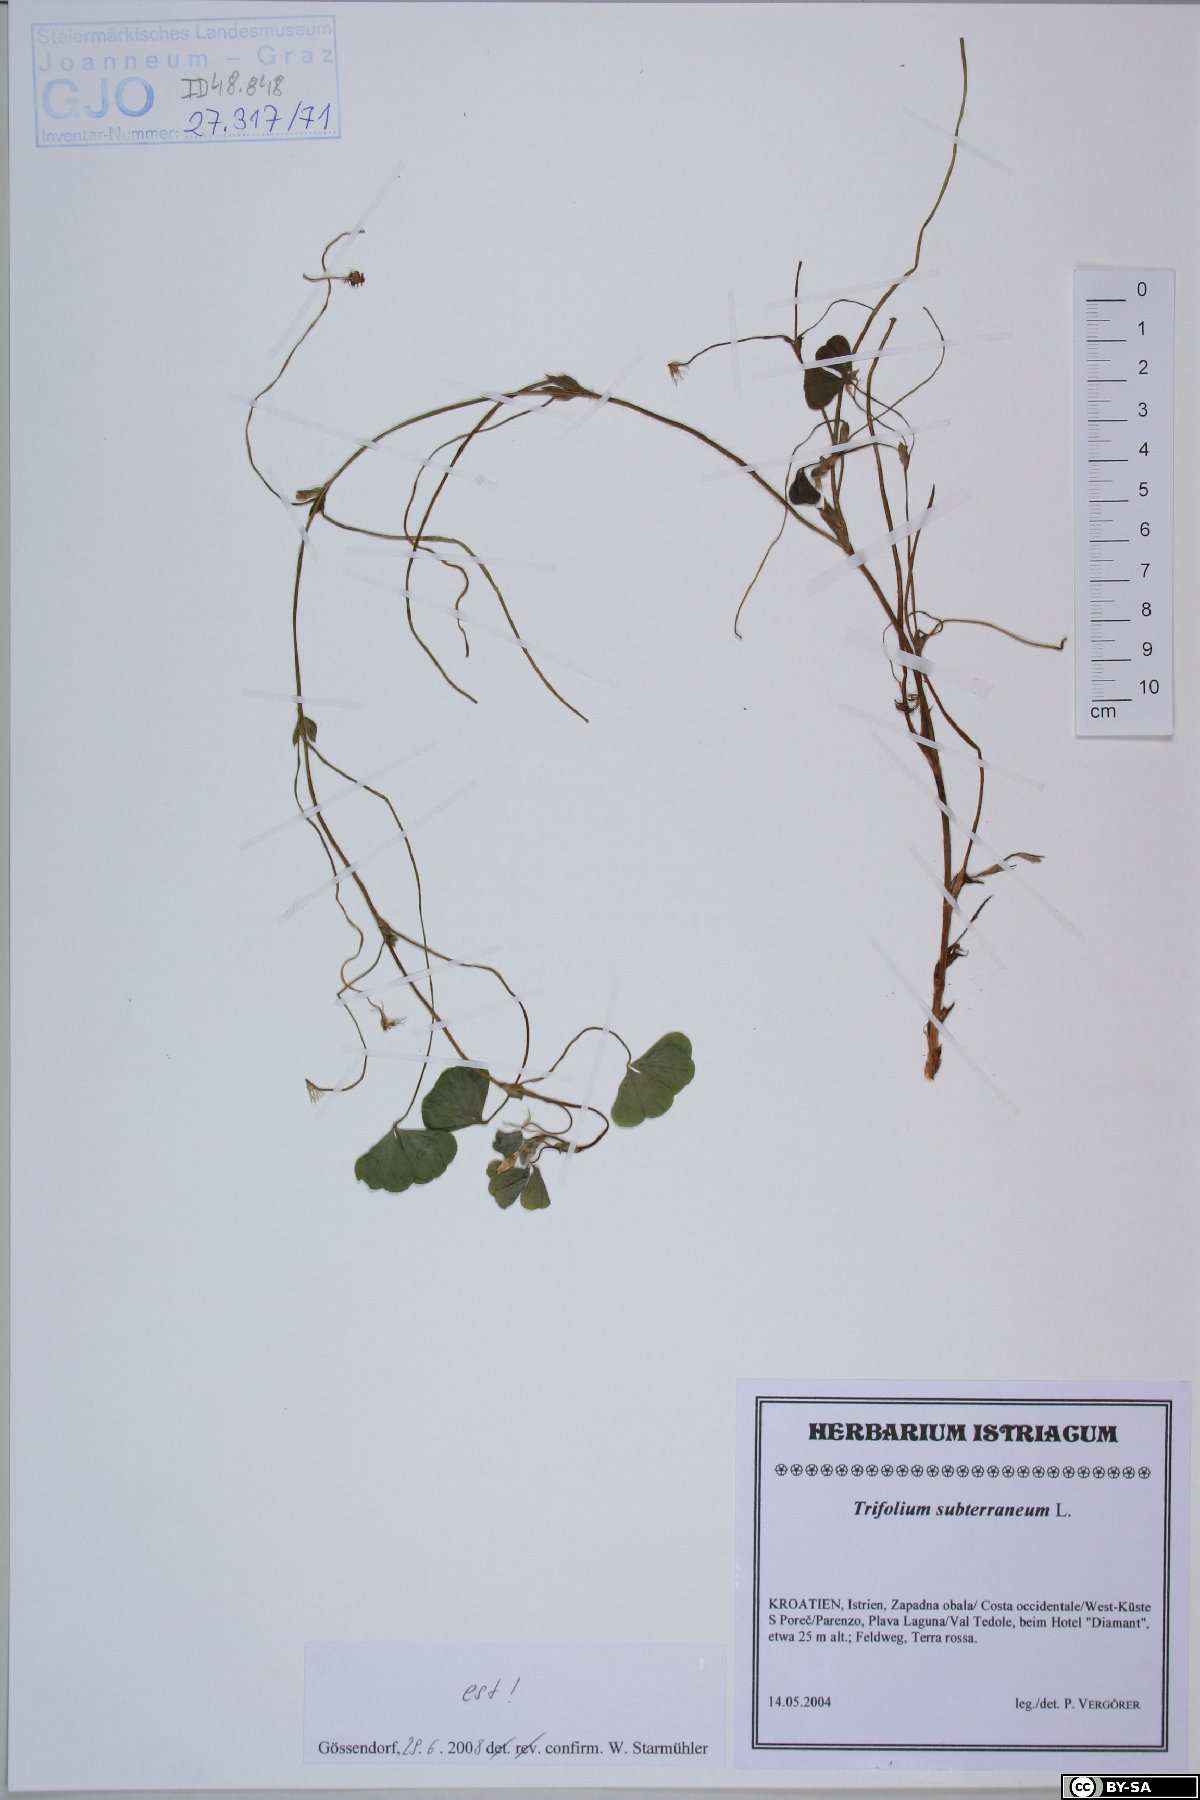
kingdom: Plantae
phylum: Tracheophyta
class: Magnoliopsida
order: Fabales
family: Fabaceae
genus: Trifolium
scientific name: Trifolium subterraneum
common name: Subterranean clover
